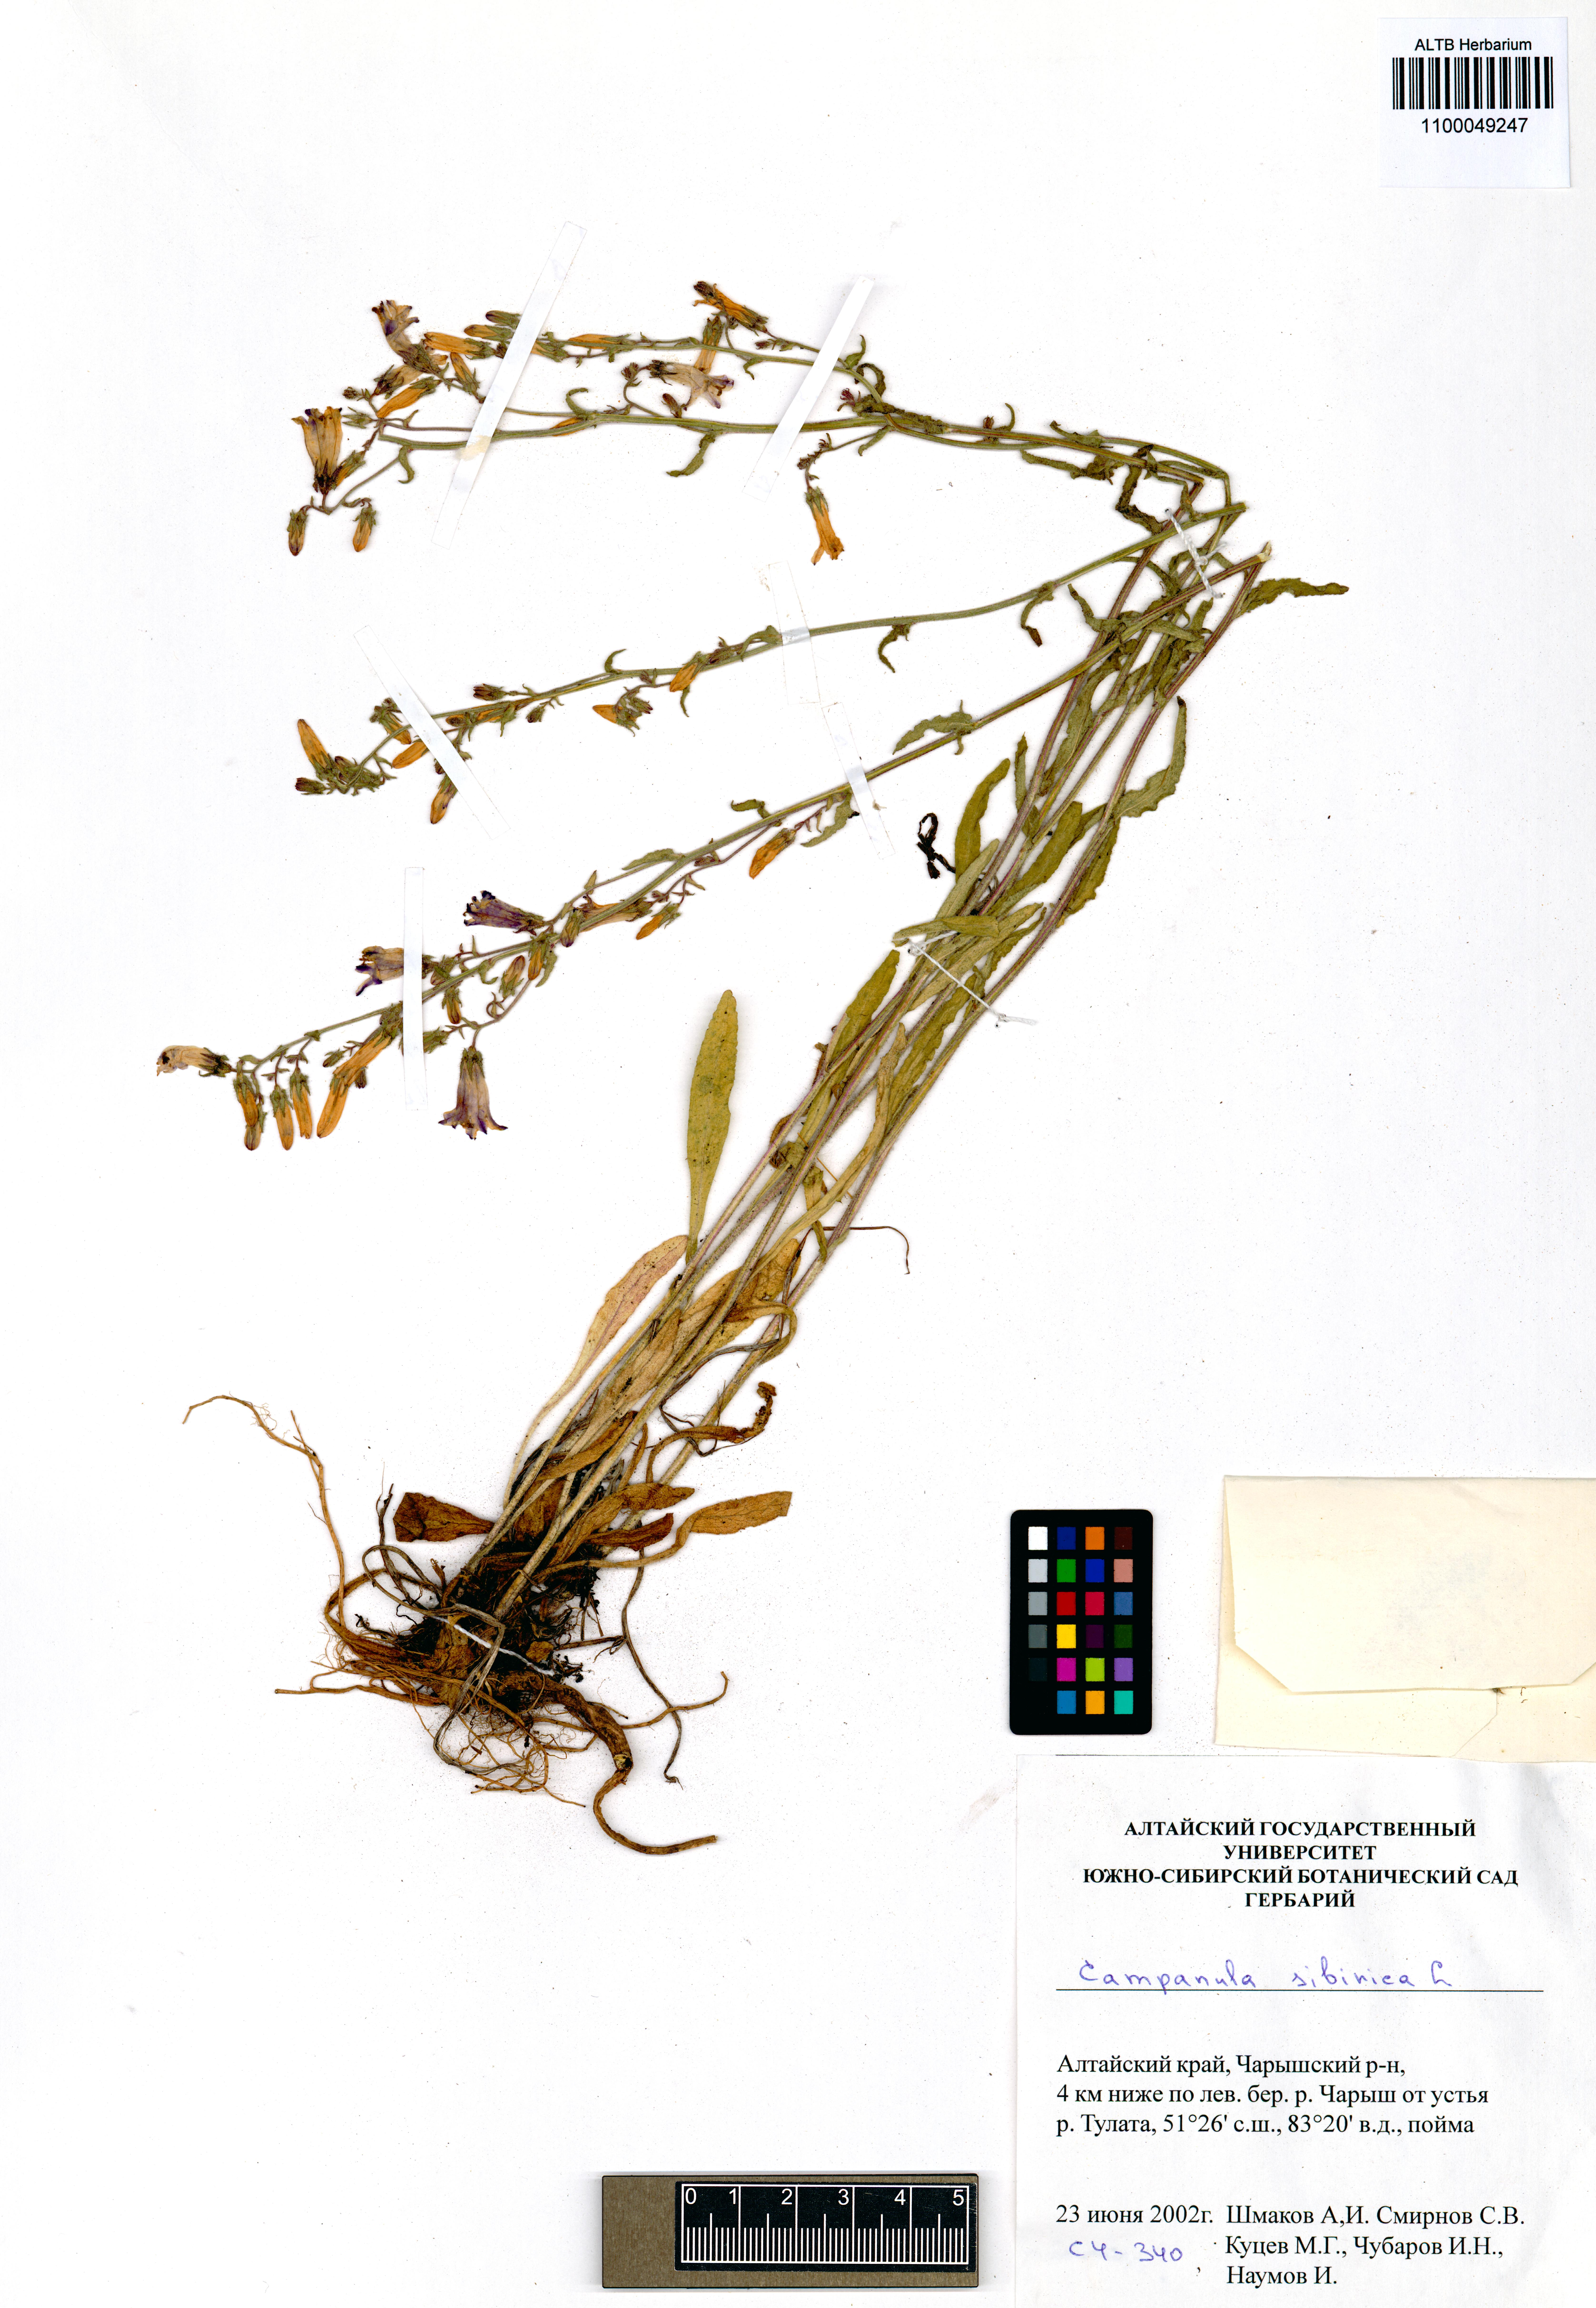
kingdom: Plantae
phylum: Tracheophyta
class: Magnoliopsida
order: Asterales
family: Campanulaceae
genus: Campanula
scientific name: Campanula sibirica
